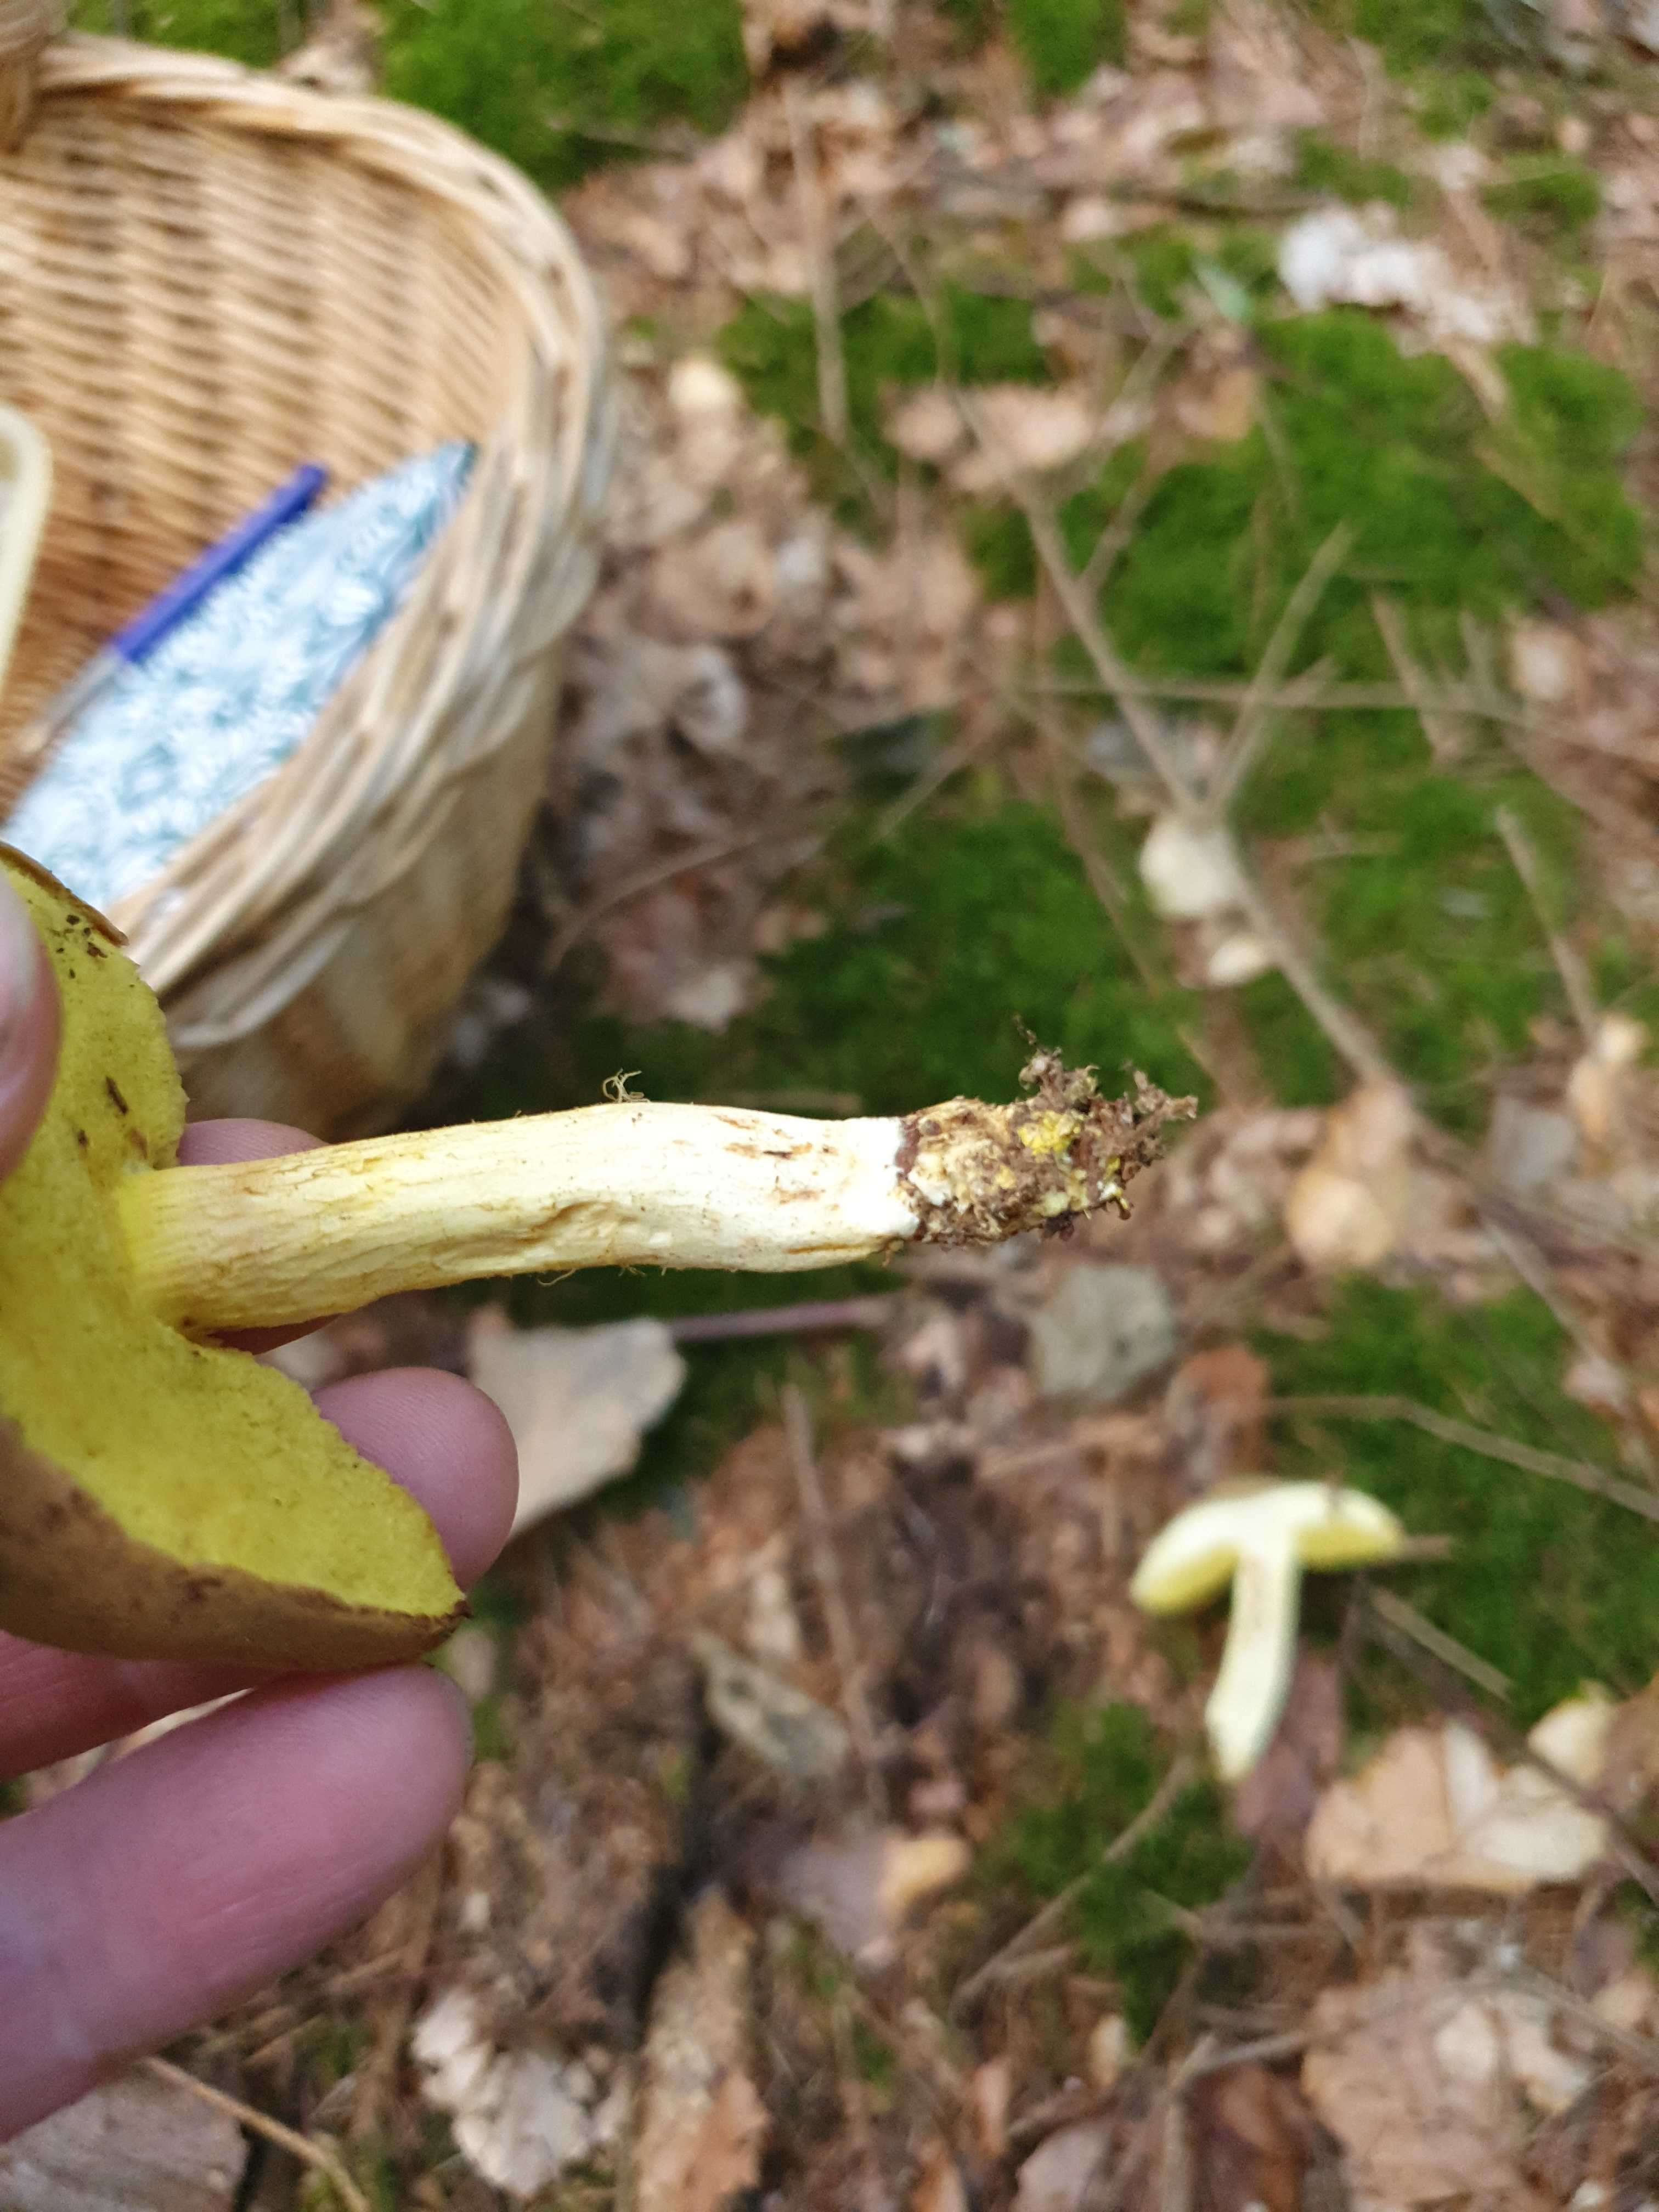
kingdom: Fungi
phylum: Basidiomycota
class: Agaricomycetes
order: Boletales
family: Boletaceae
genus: Xerocomus
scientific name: Xerocomus ferrugineus
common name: vaskeskinds-rørhat
